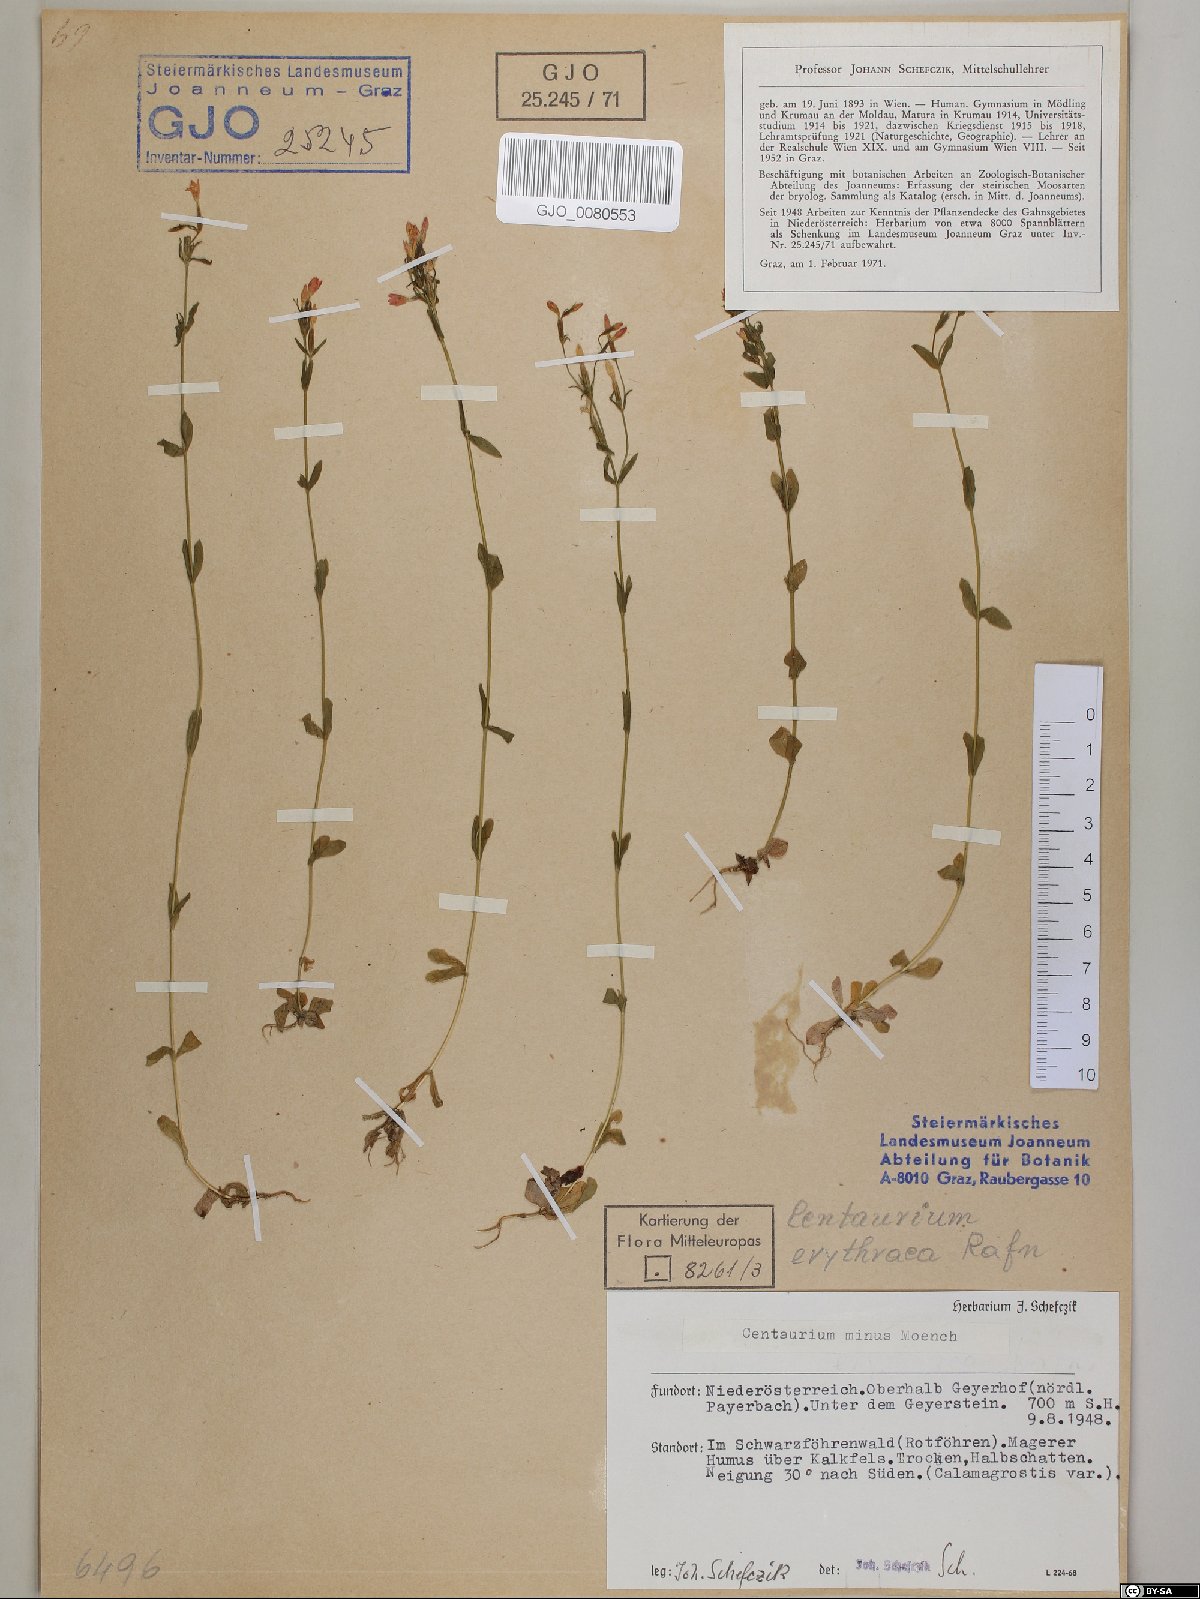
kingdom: Plantae
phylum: Tracheophyta
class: Magnoliopsida
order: Gentianales
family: Gentianaceae
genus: Centaurium
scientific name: Centaurium erythraea
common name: Common centaury
